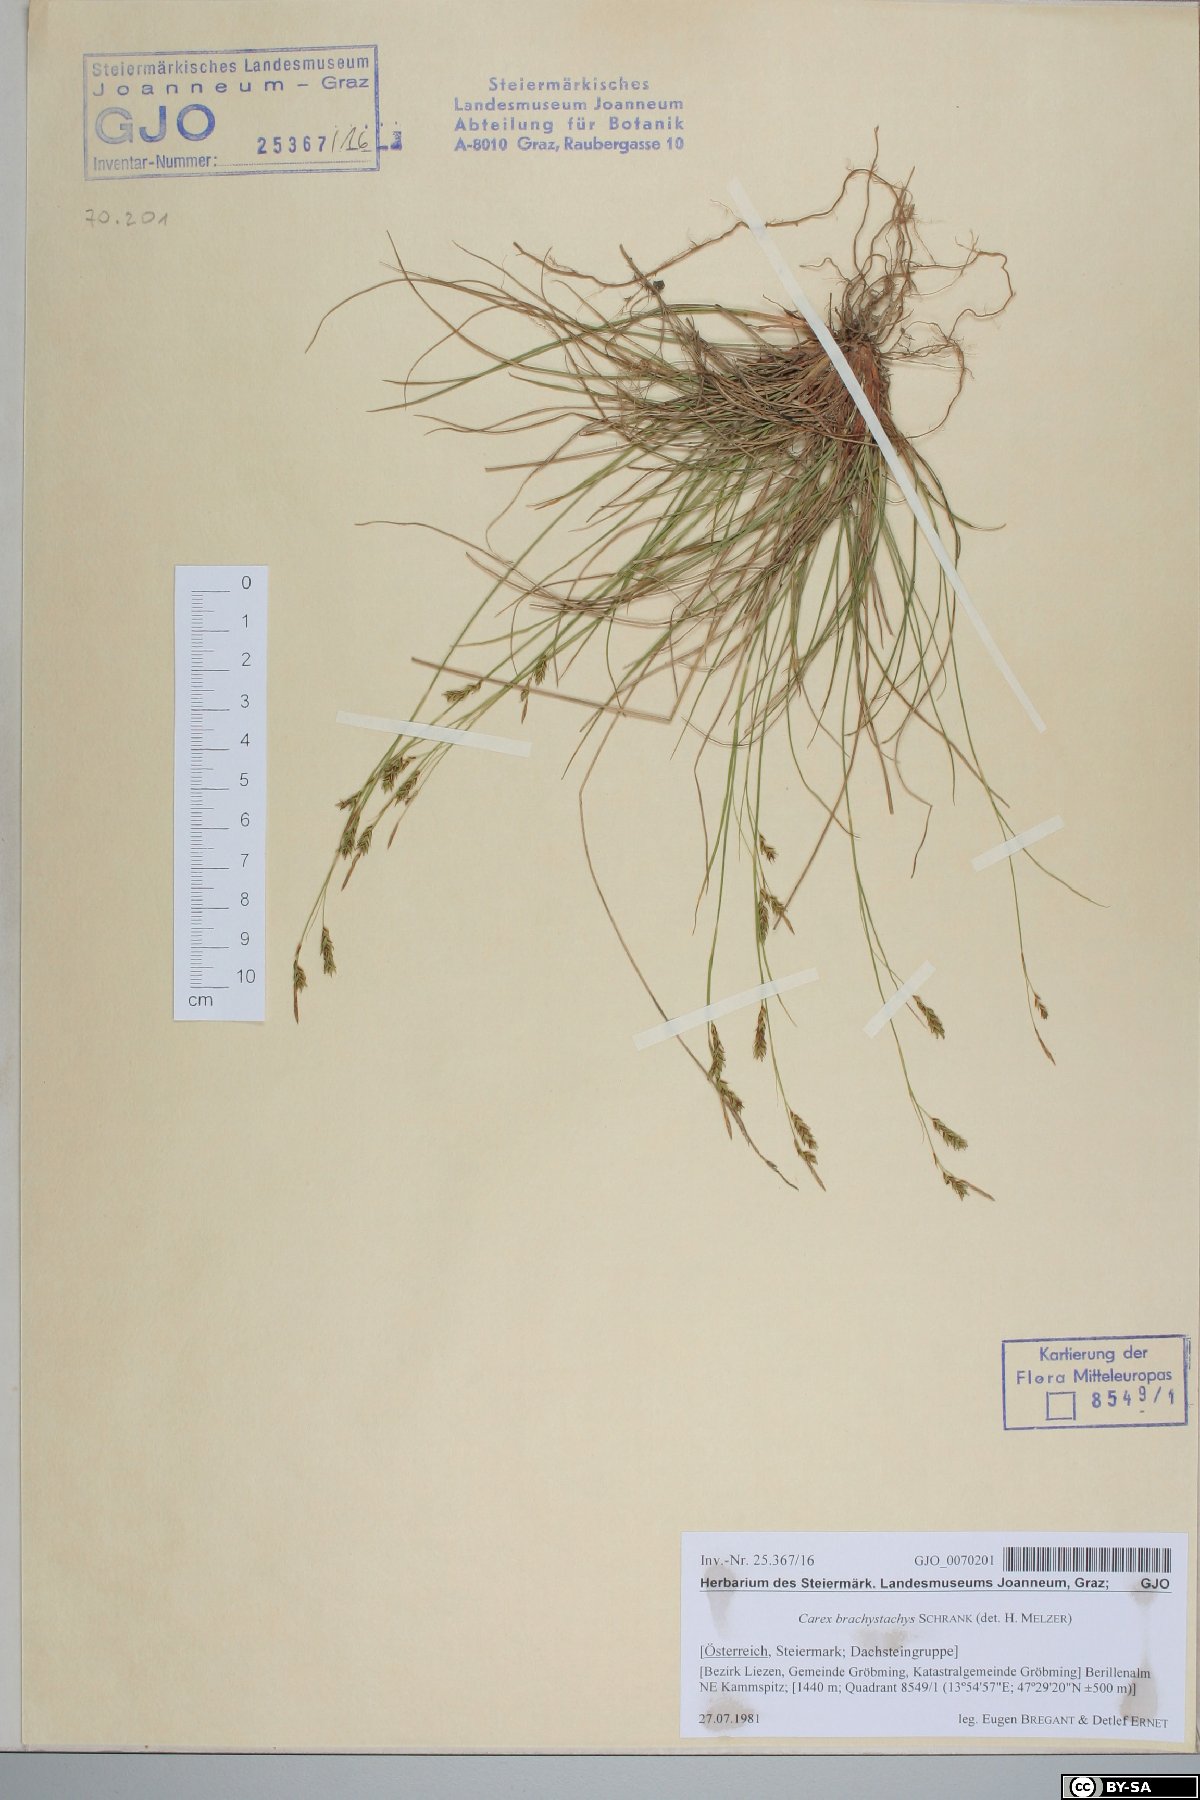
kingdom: Plantae
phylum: Tracheophyta
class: Liliopsida
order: Poales
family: Cyperaceae
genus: Carex
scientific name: Carex brachystachys
